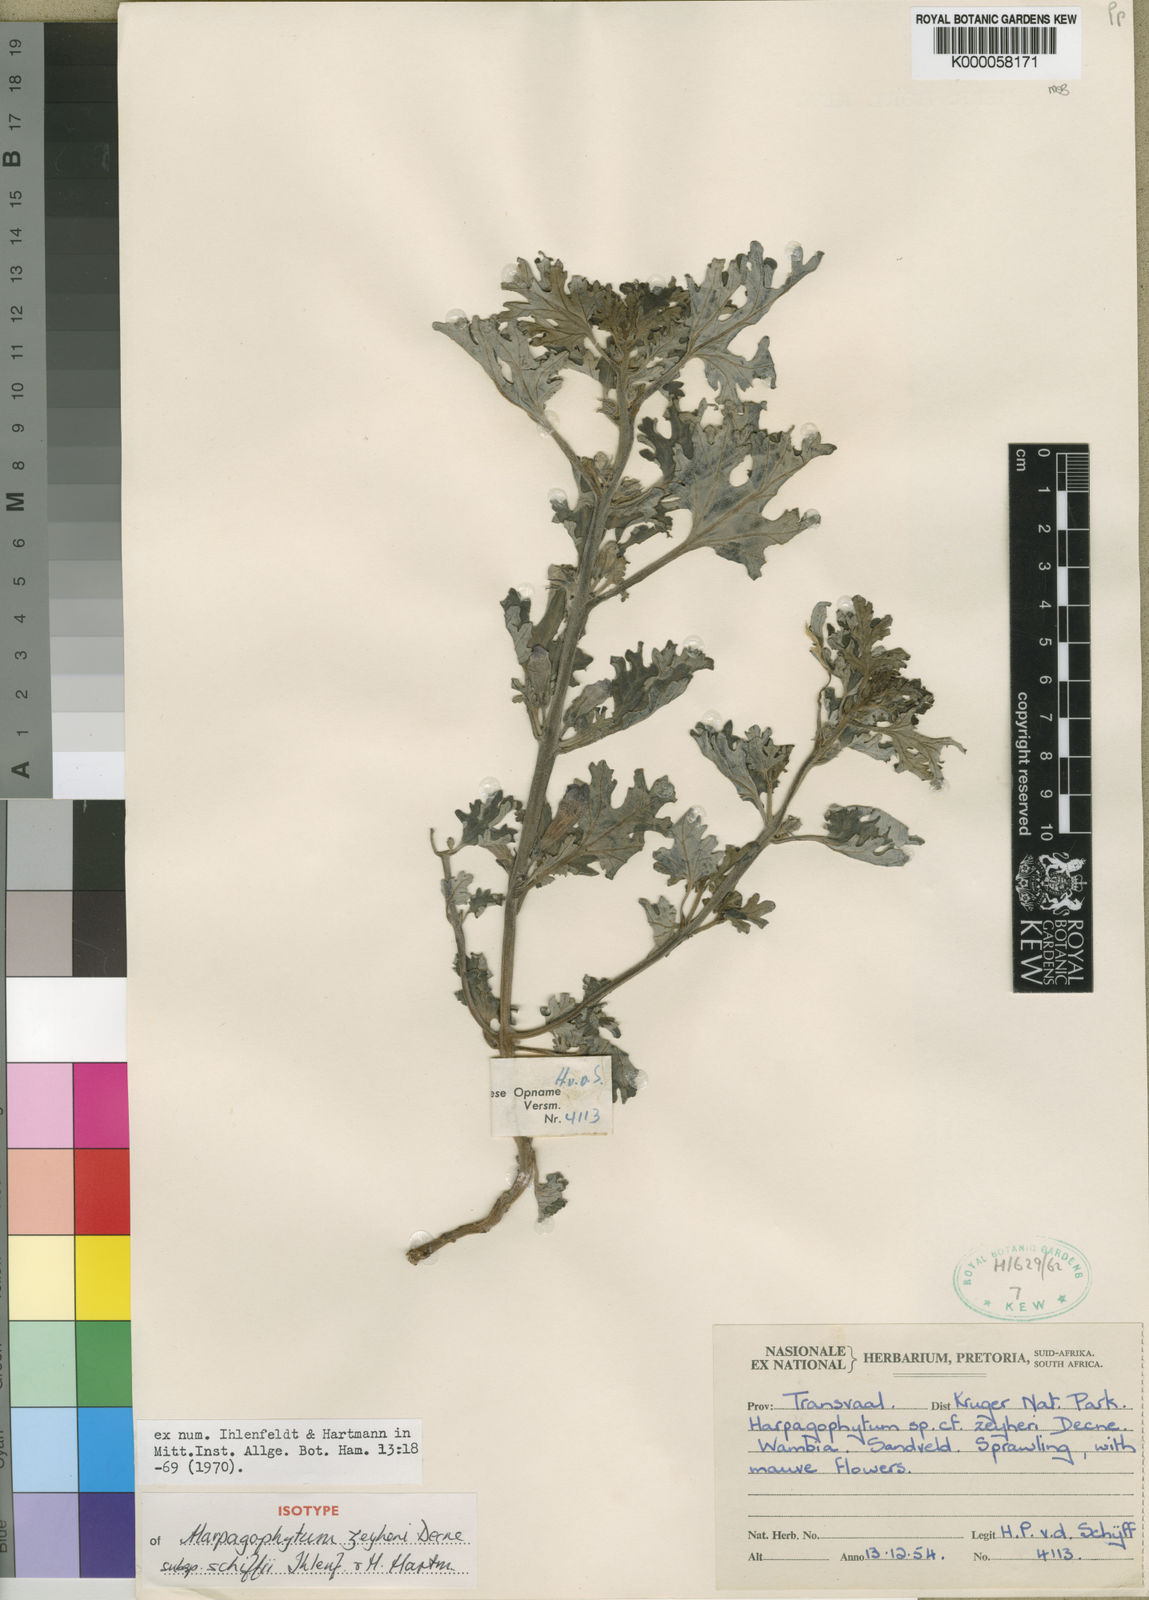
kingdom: Plantae
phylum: Tracheophyta
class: Magnoliopsida
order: Lamiales
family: Pedaliaceae
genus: Harpagophytum
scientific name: Harpagophytum zeyheri
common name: Grappleplant
